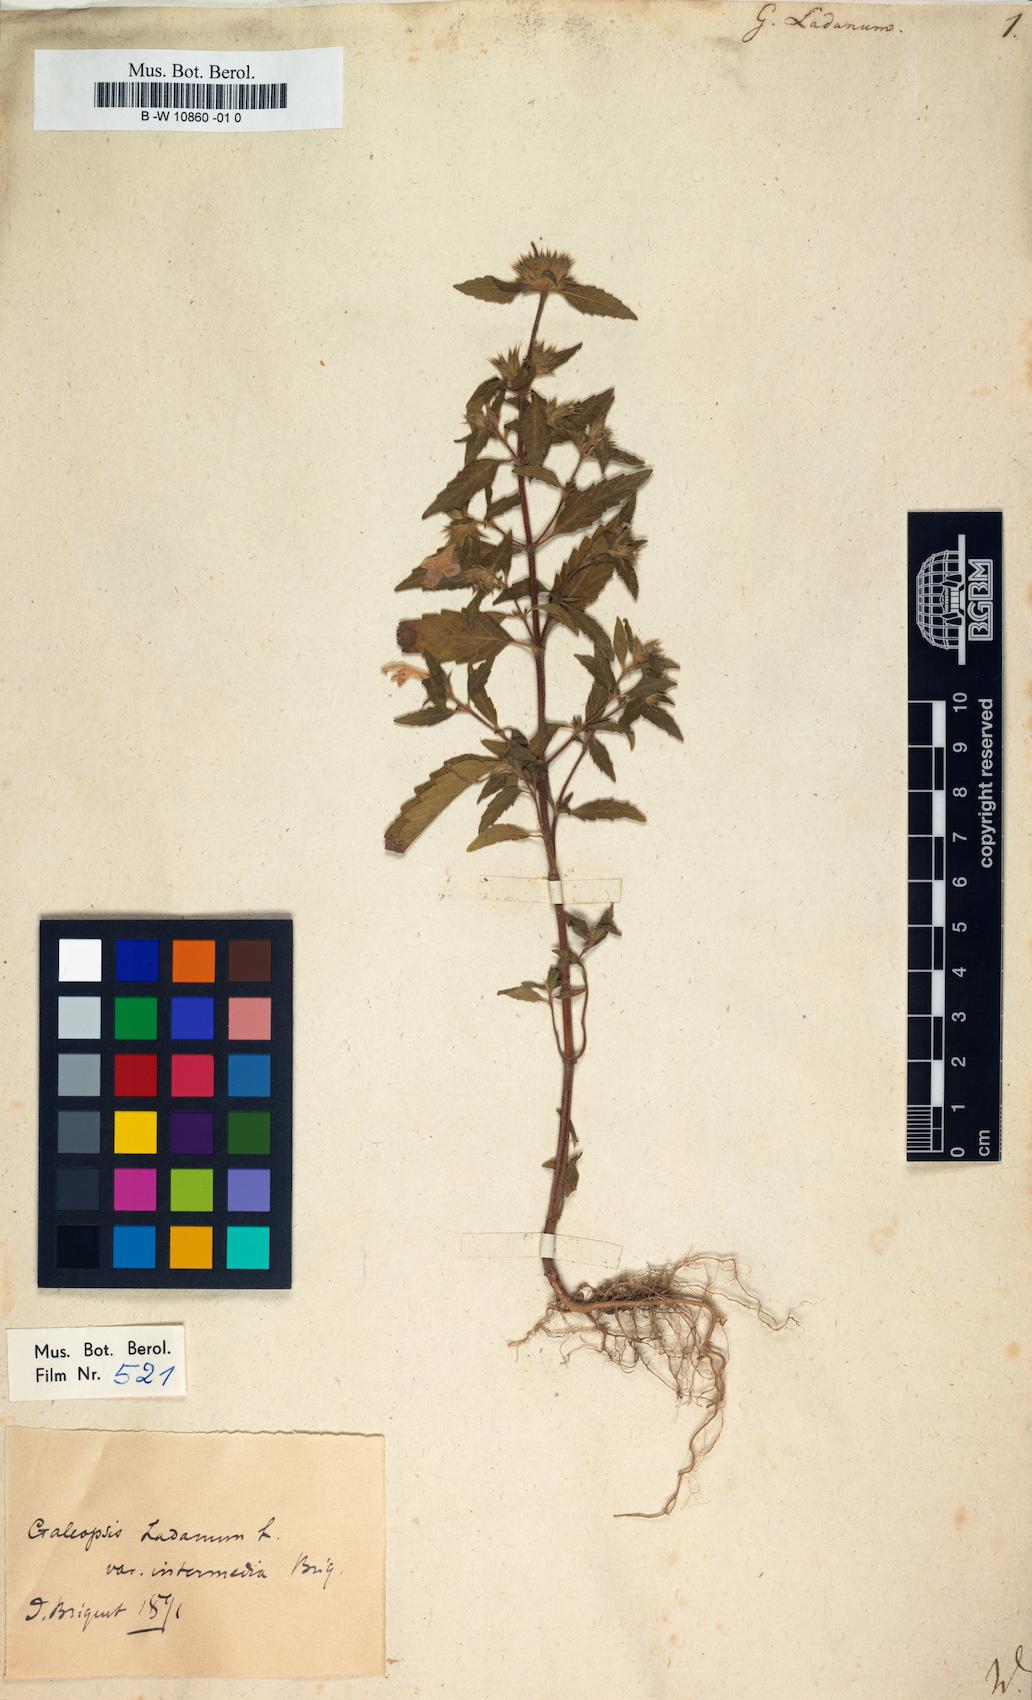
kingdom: Plantae
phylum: Tracheophyta
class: Magnoliopsida
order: Lamiales
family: Lamiaceae
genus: Galeopsis
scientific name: Galeopsis ladanum
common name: Broad-leaved hemp-nettle
